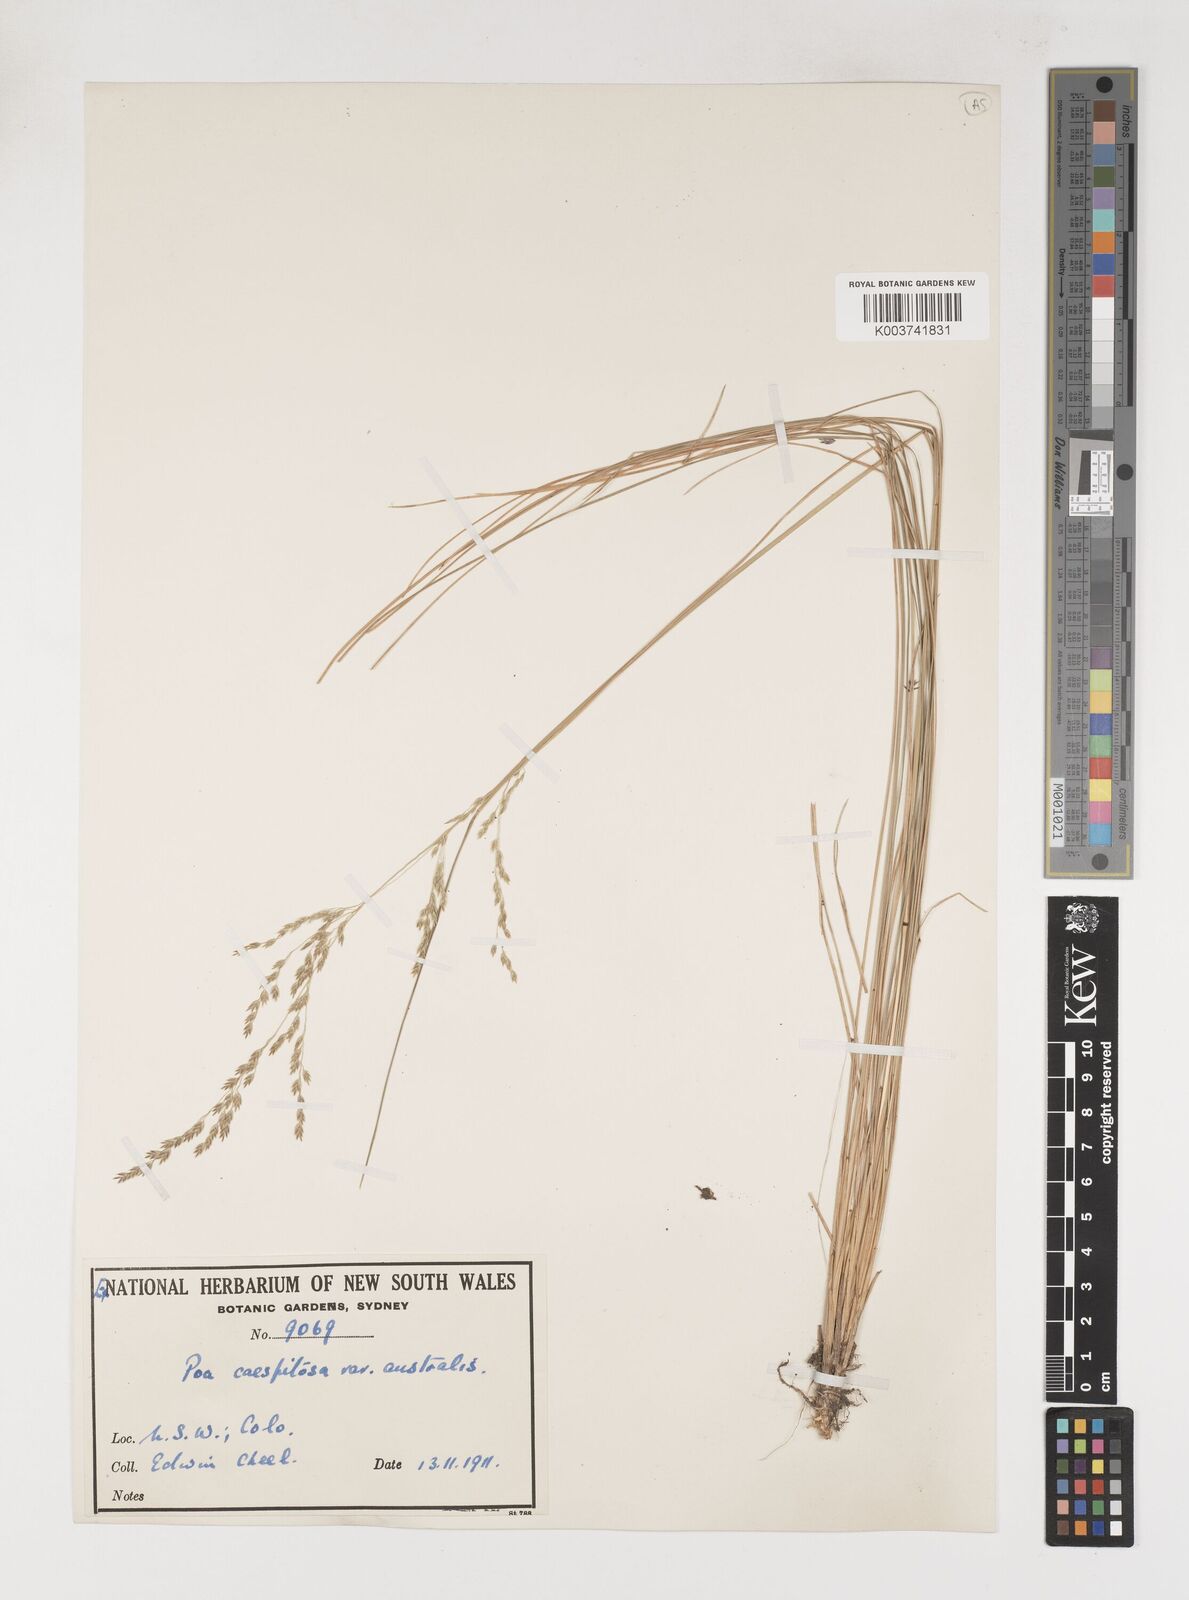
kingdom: Plantae
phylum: Tracheophyta
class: Liliopsida
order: Poales
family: Poaceae
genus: Poa
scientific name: Poa sieberiana
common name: Tussock poa
